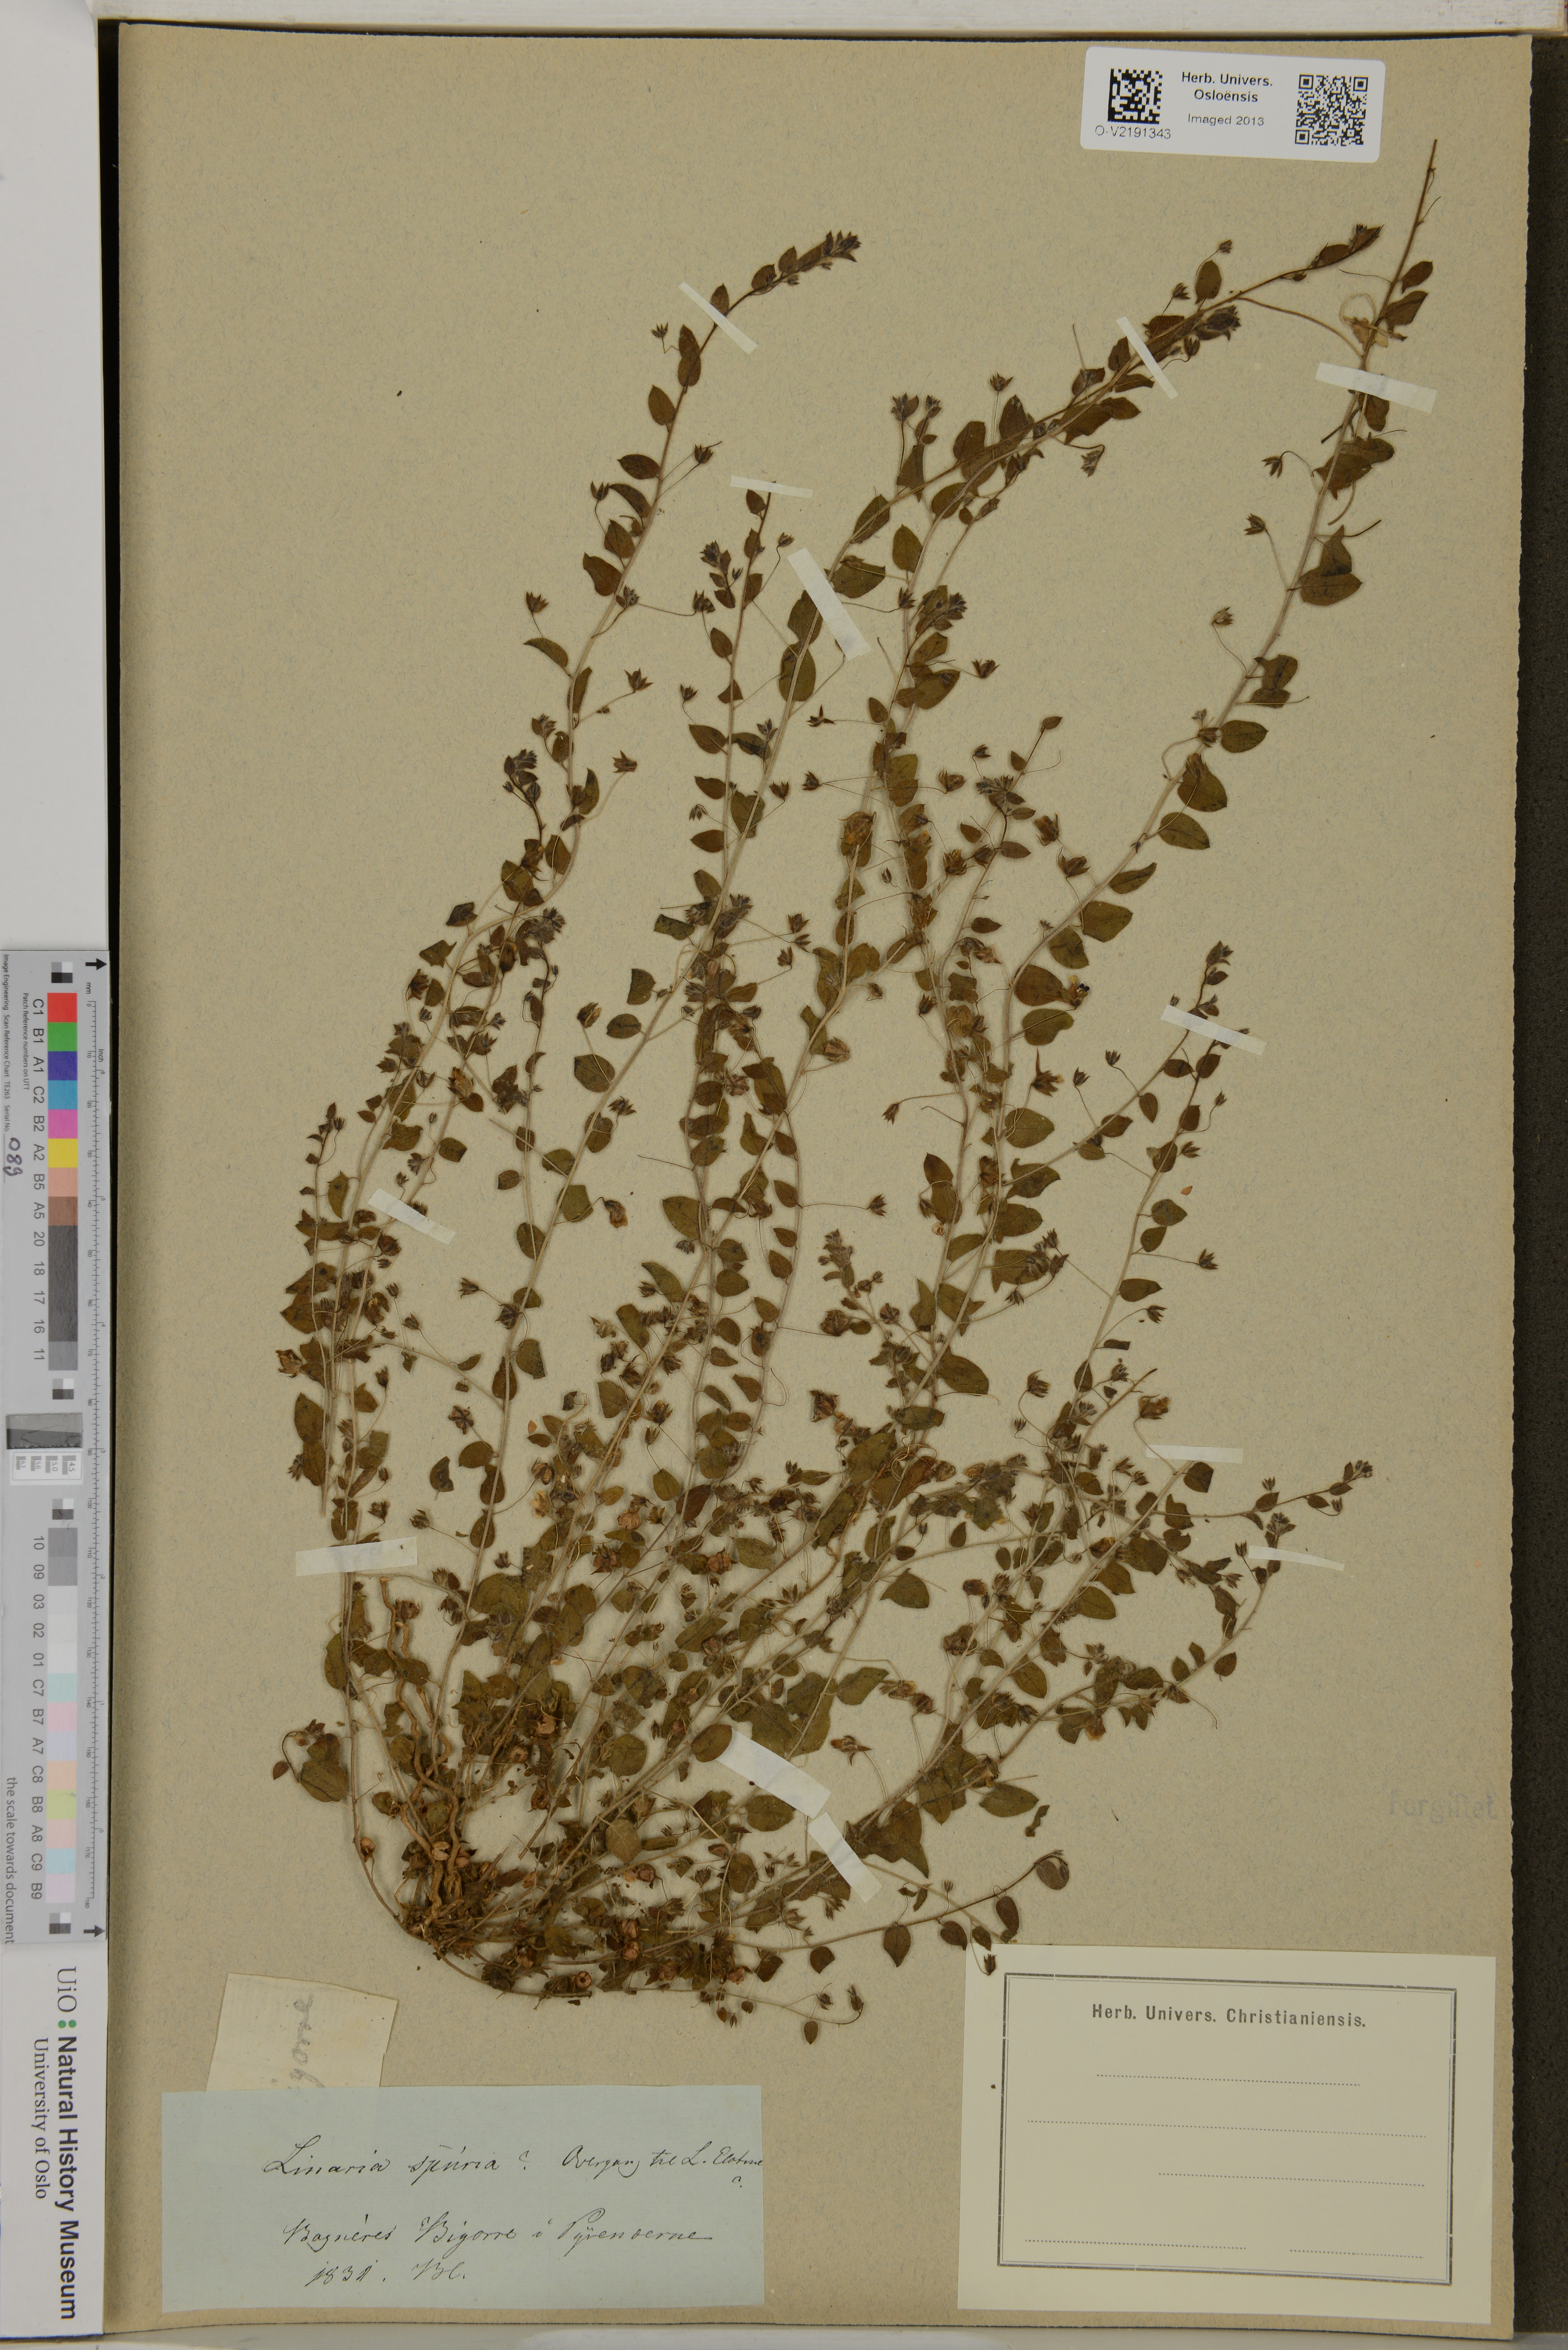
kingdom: Plantae
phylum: Tracheophyta
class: Magnoliopsida
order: Lamiales
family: Plantaginaceae
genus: Kickxia
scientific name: Kickxia spuria
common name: Round-leaved fluellen
